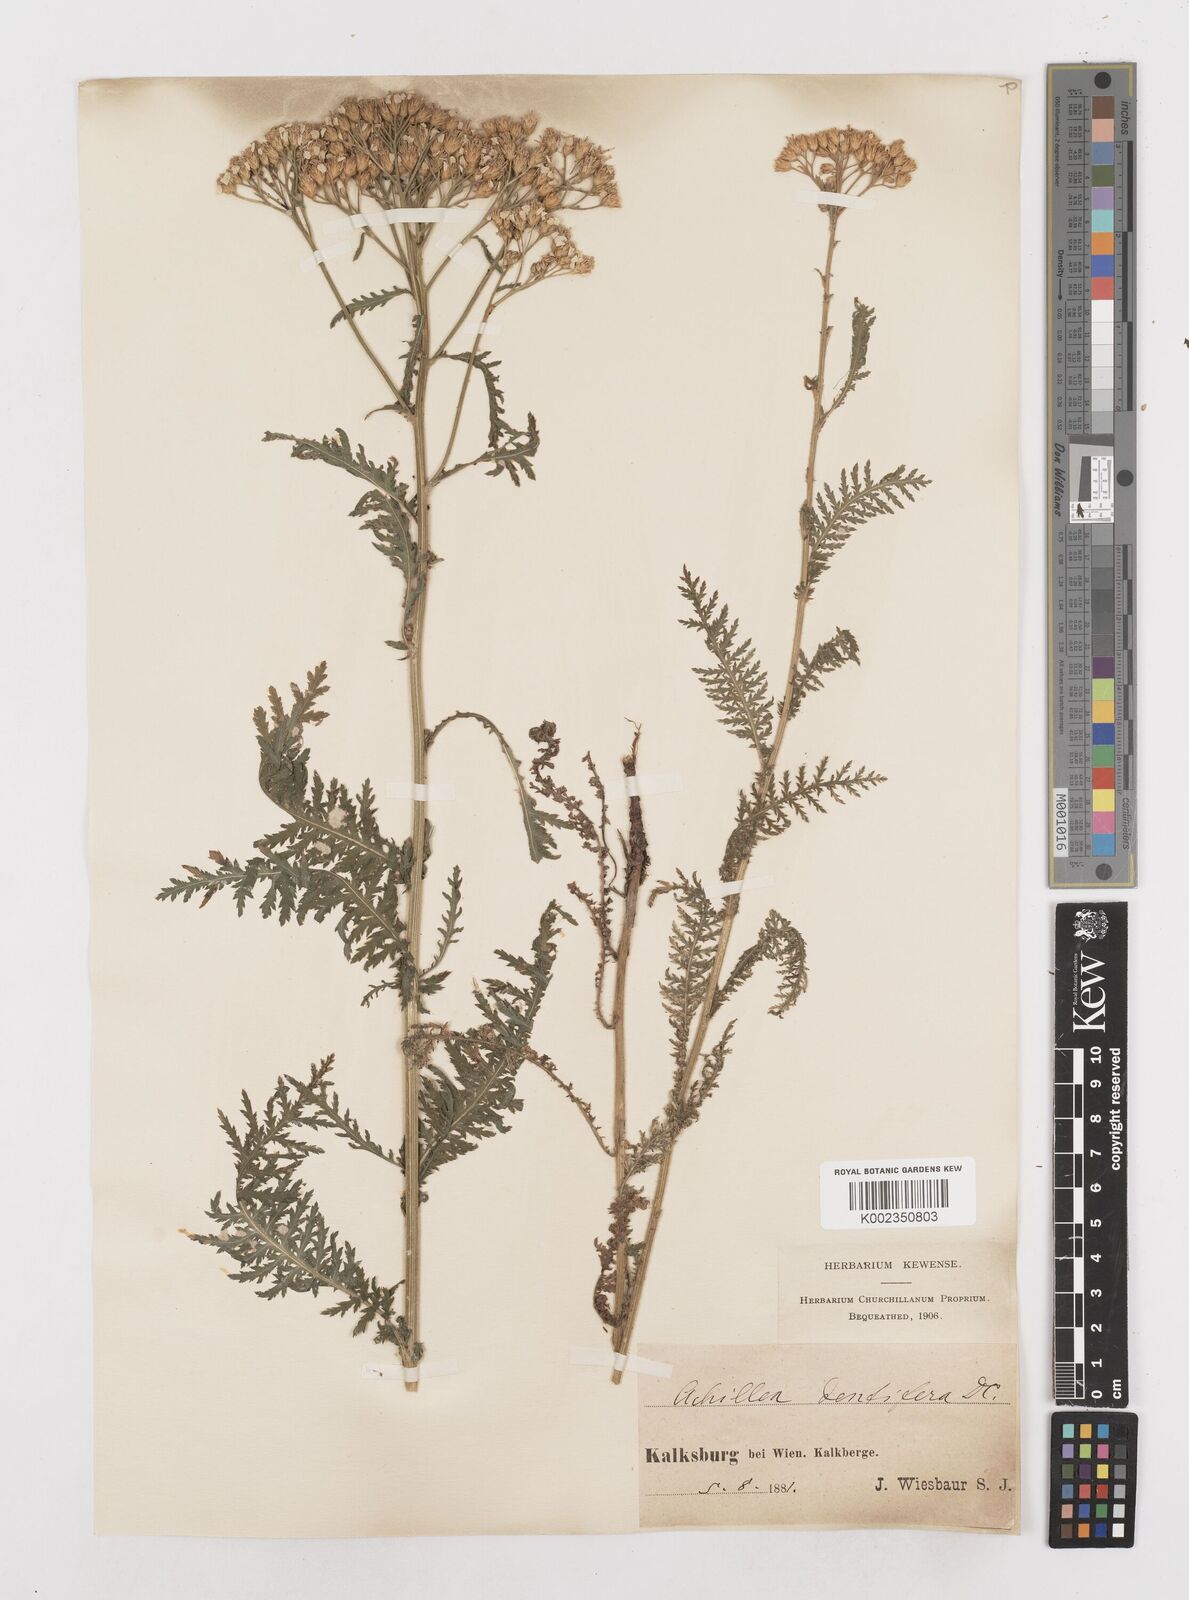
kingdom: Plantae
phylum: Tracheophyta
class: Magnoliopsida
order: Asterales
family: Asteraceae
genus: Achillea
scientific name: Achillea distans
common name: Tall yarrow
